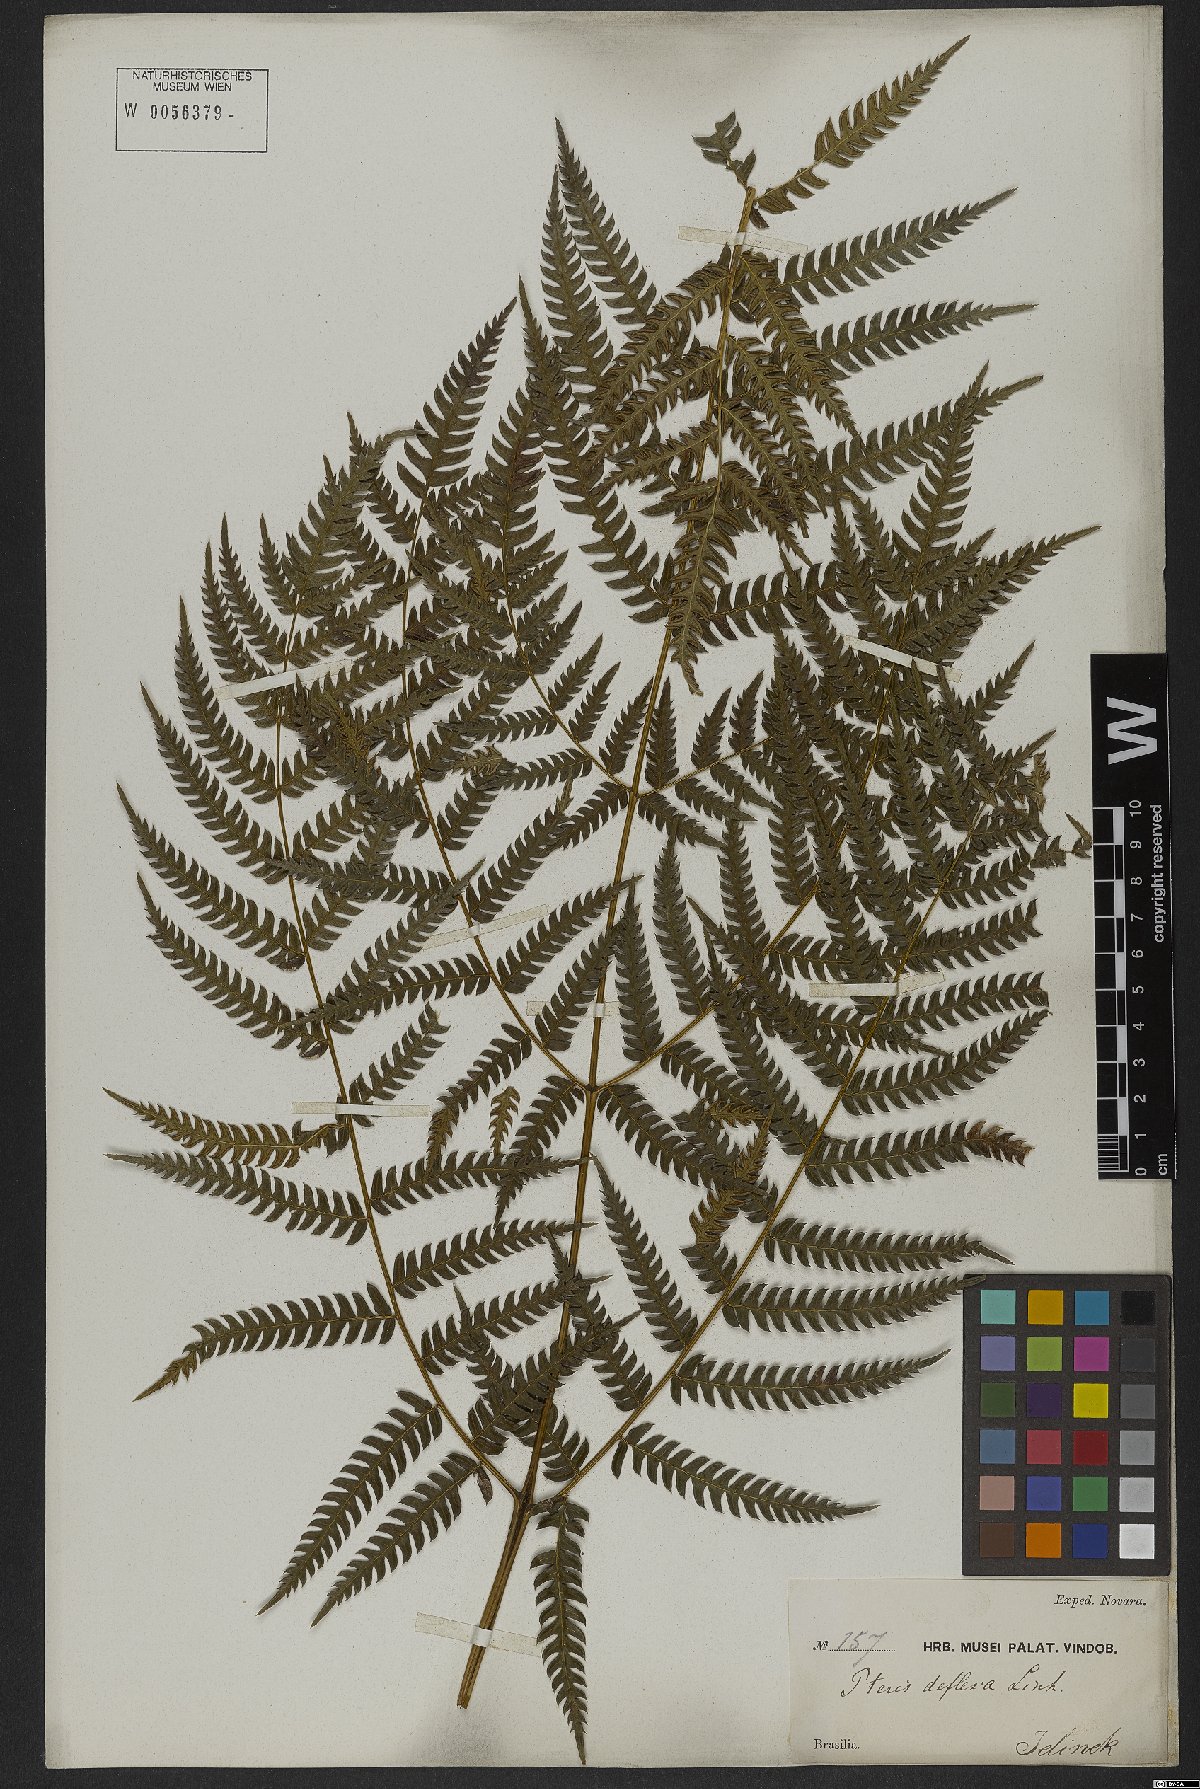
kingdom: Plantae
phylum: Tracheophyta
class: Polypodiopsida
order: Polypodiales
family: Pteridaceae
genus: Pteris
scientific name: Pteris deflexa
